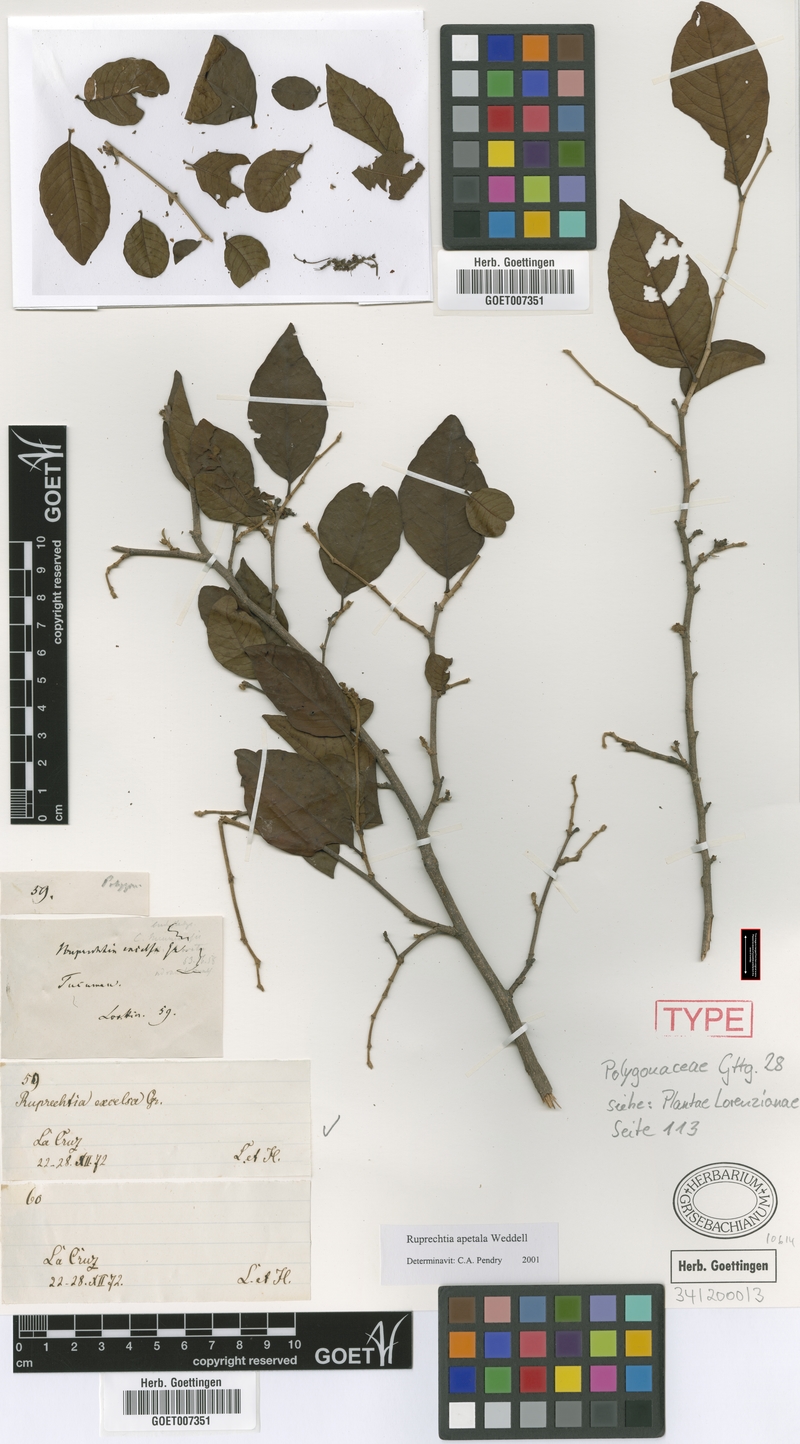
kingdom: Plantae
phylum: Tracheophyta
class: Magnoliopsida
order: Caryophyllales
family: Polygonaceae
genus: Ruprechtia
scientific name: Ruprechtia apetala
